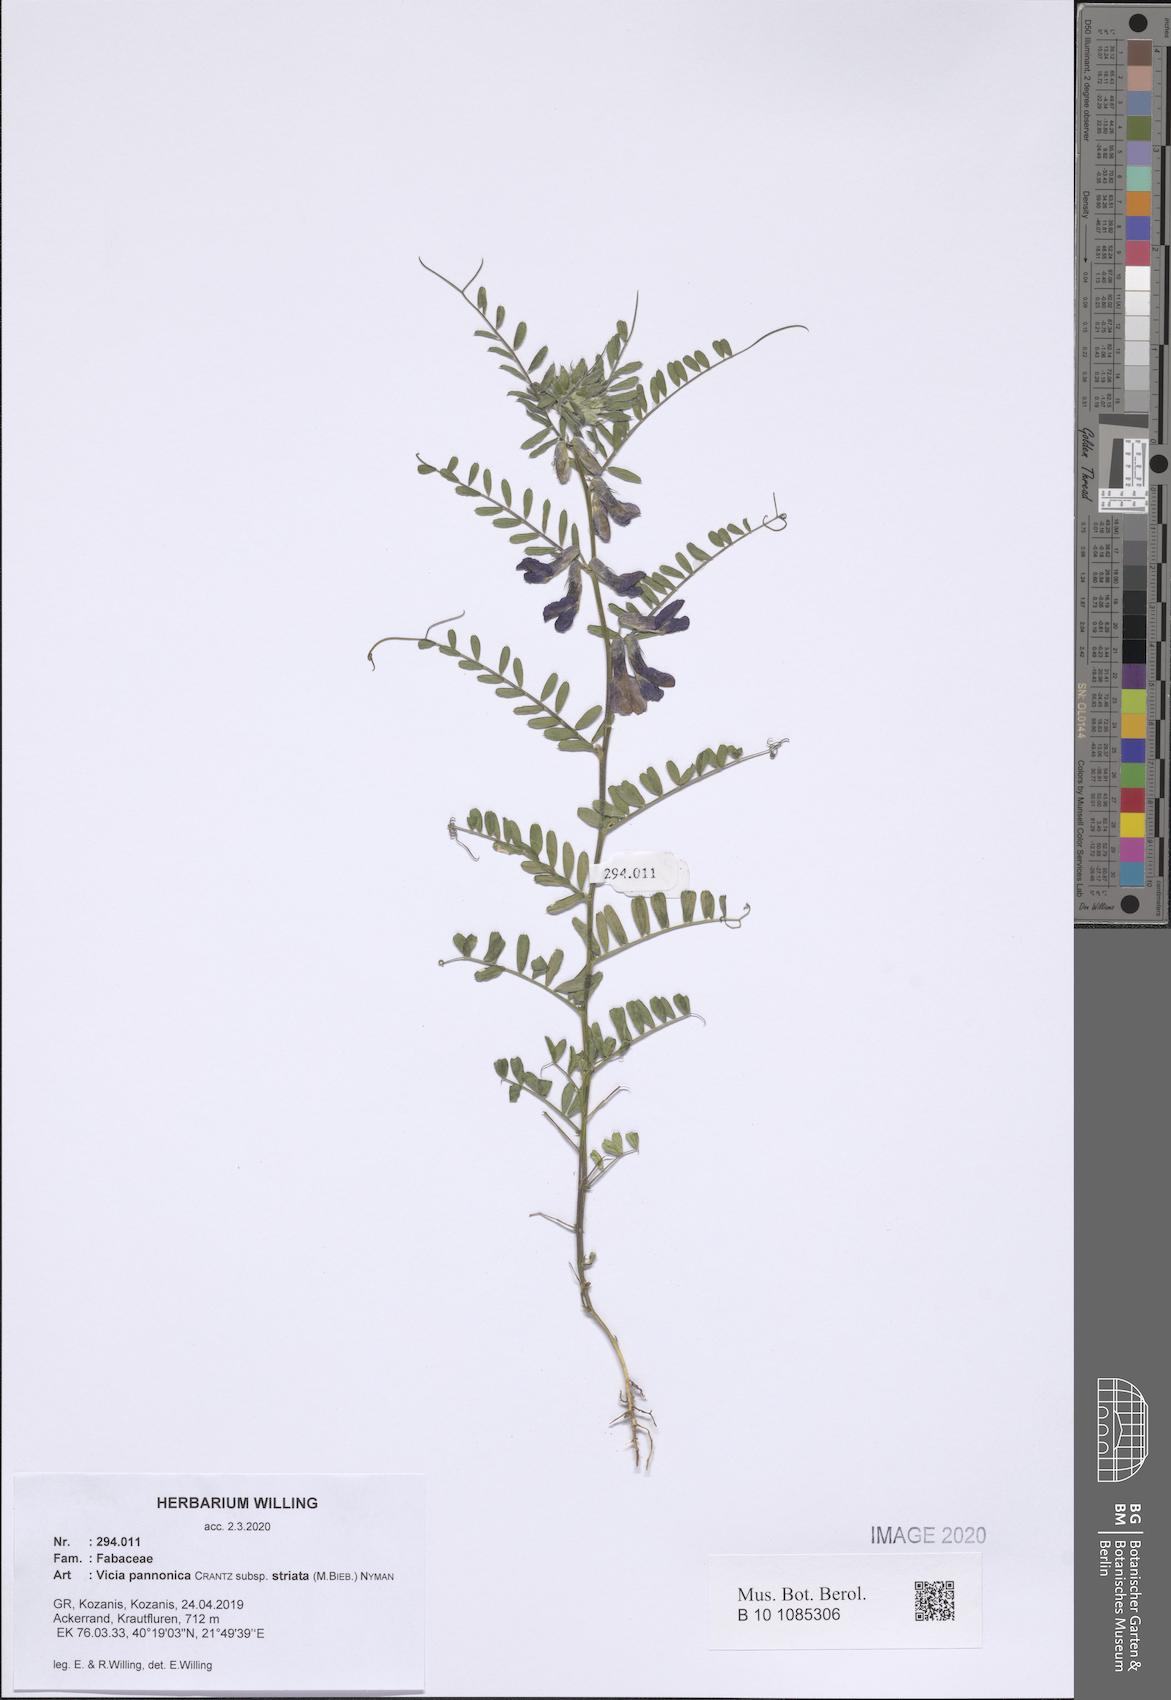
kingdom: Plantae
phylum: Tracheophyta
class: Magnoliopsida
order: Fabales
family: Fabaceae
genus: Vicia
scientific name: Vicia pannonica
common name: Hungarian vetch
